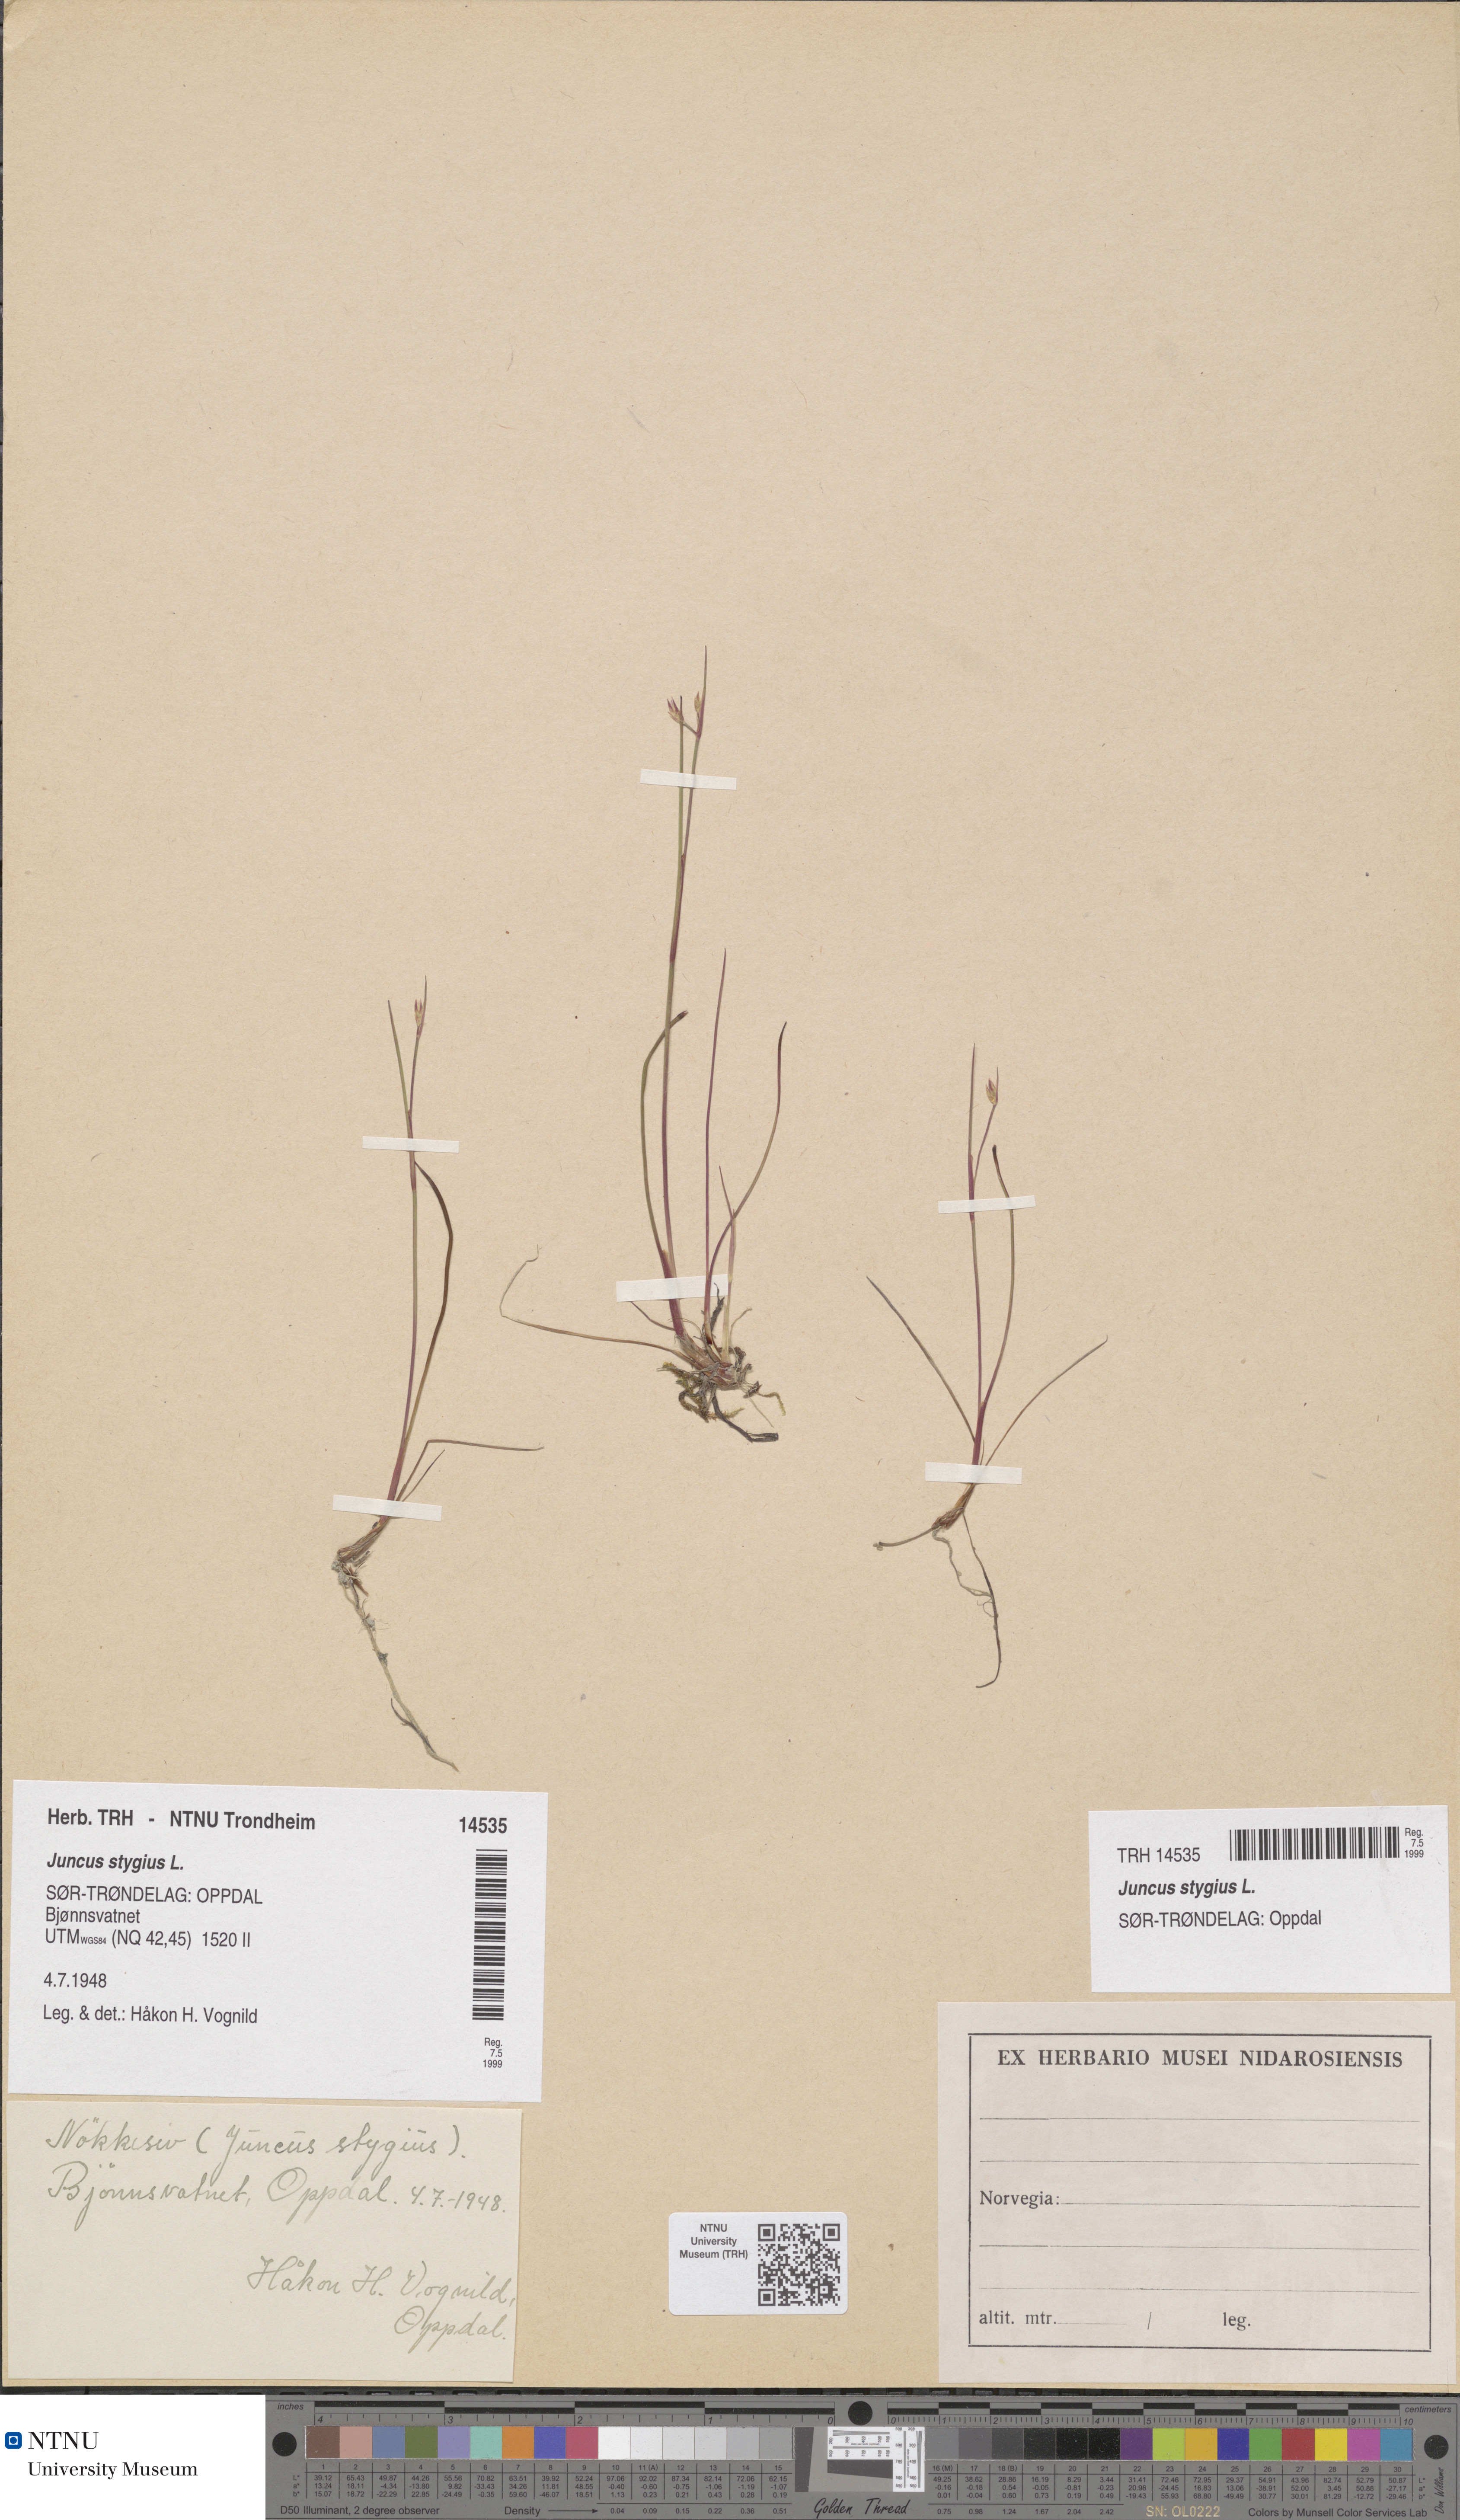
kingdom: Plantae
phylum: Tracheophyta
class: Liliopsida
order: Poales
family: Juncaceae
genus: Juncus
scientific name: Juncus stygius
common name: Bog rush
